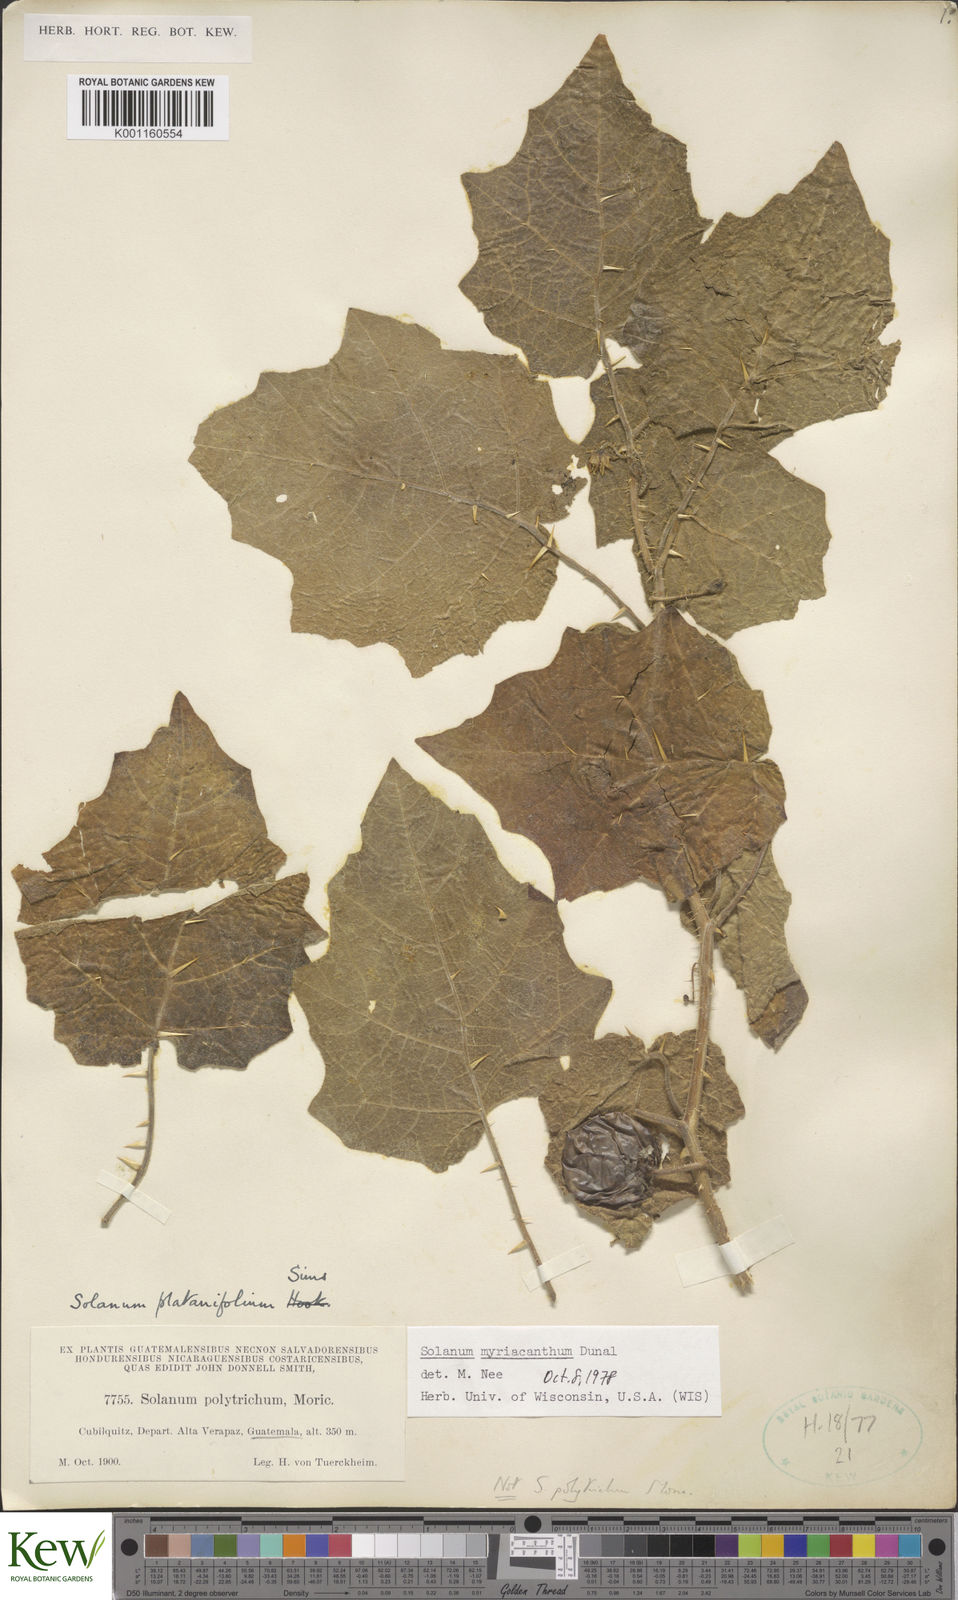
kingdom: Plantae
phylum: Tracheophyta
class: Magnoliopsida
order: Solanales
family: Solanaceae
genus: Solanum
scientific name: Solanum myriacanthum
